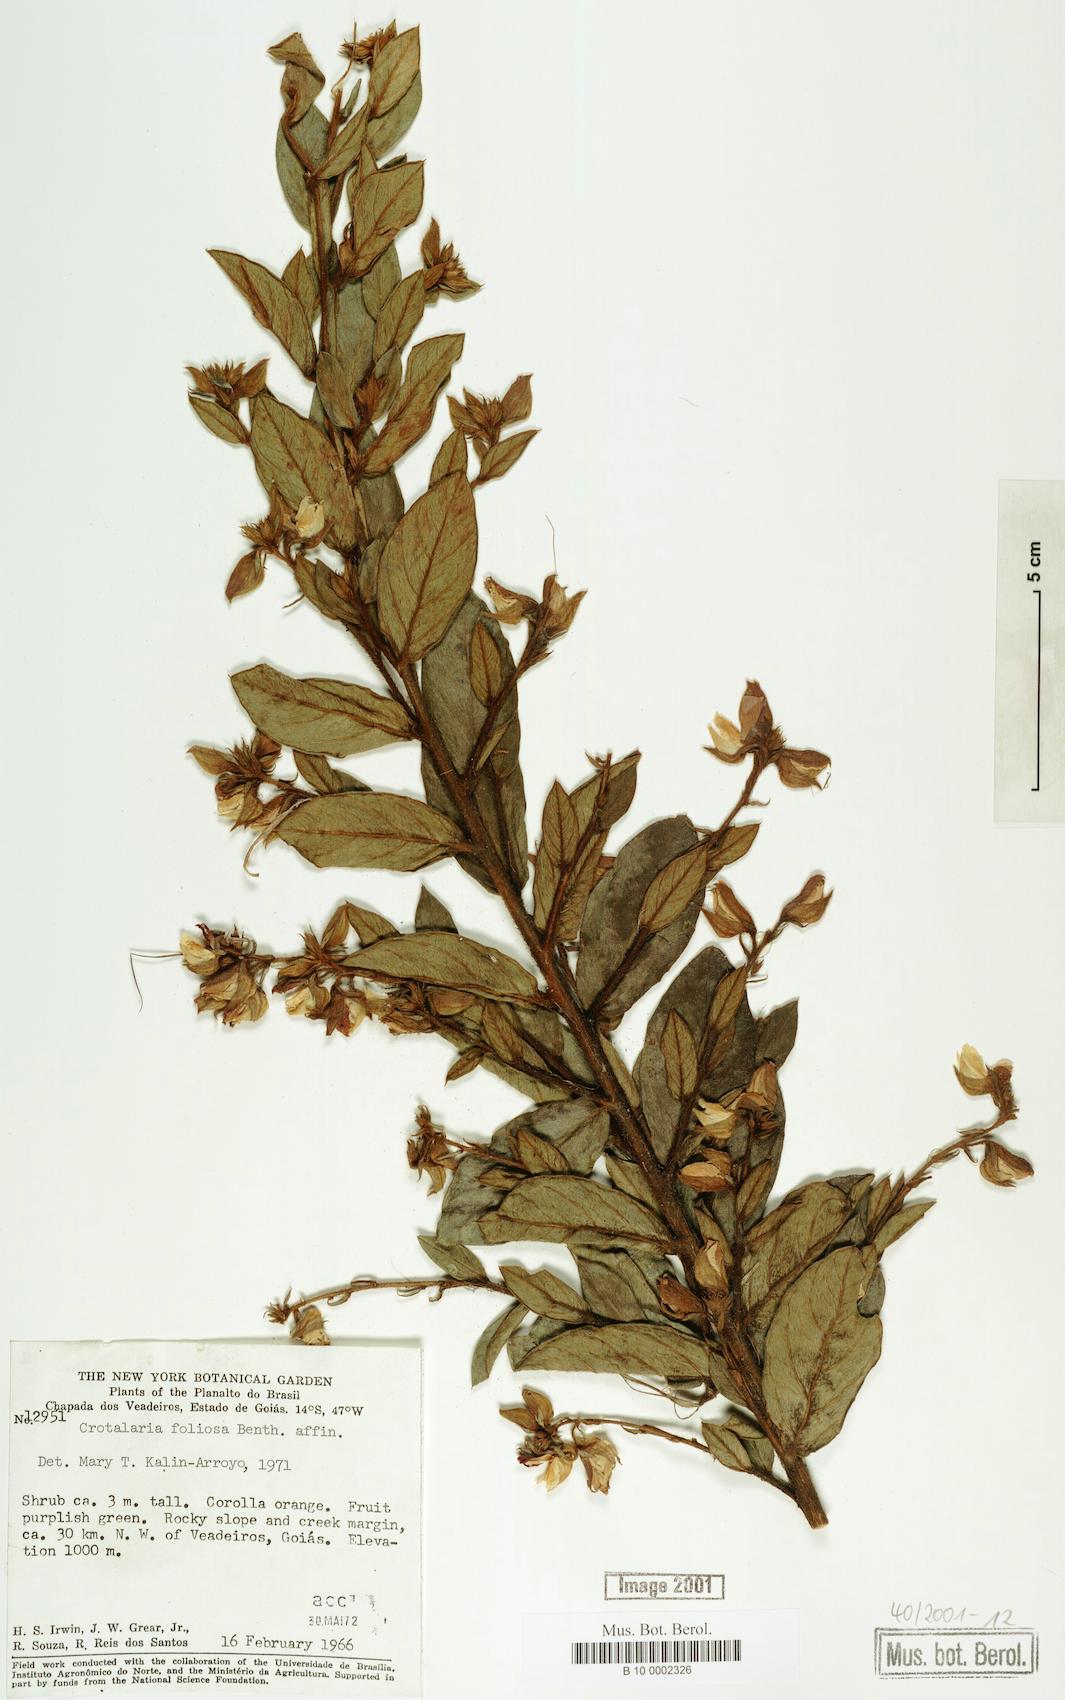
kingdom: Plantae
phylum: Tracheophyta
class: Magnoliopsida
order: Fabales
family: Fabaceae
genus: Crotalaria
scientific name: Crotalaria martiana
